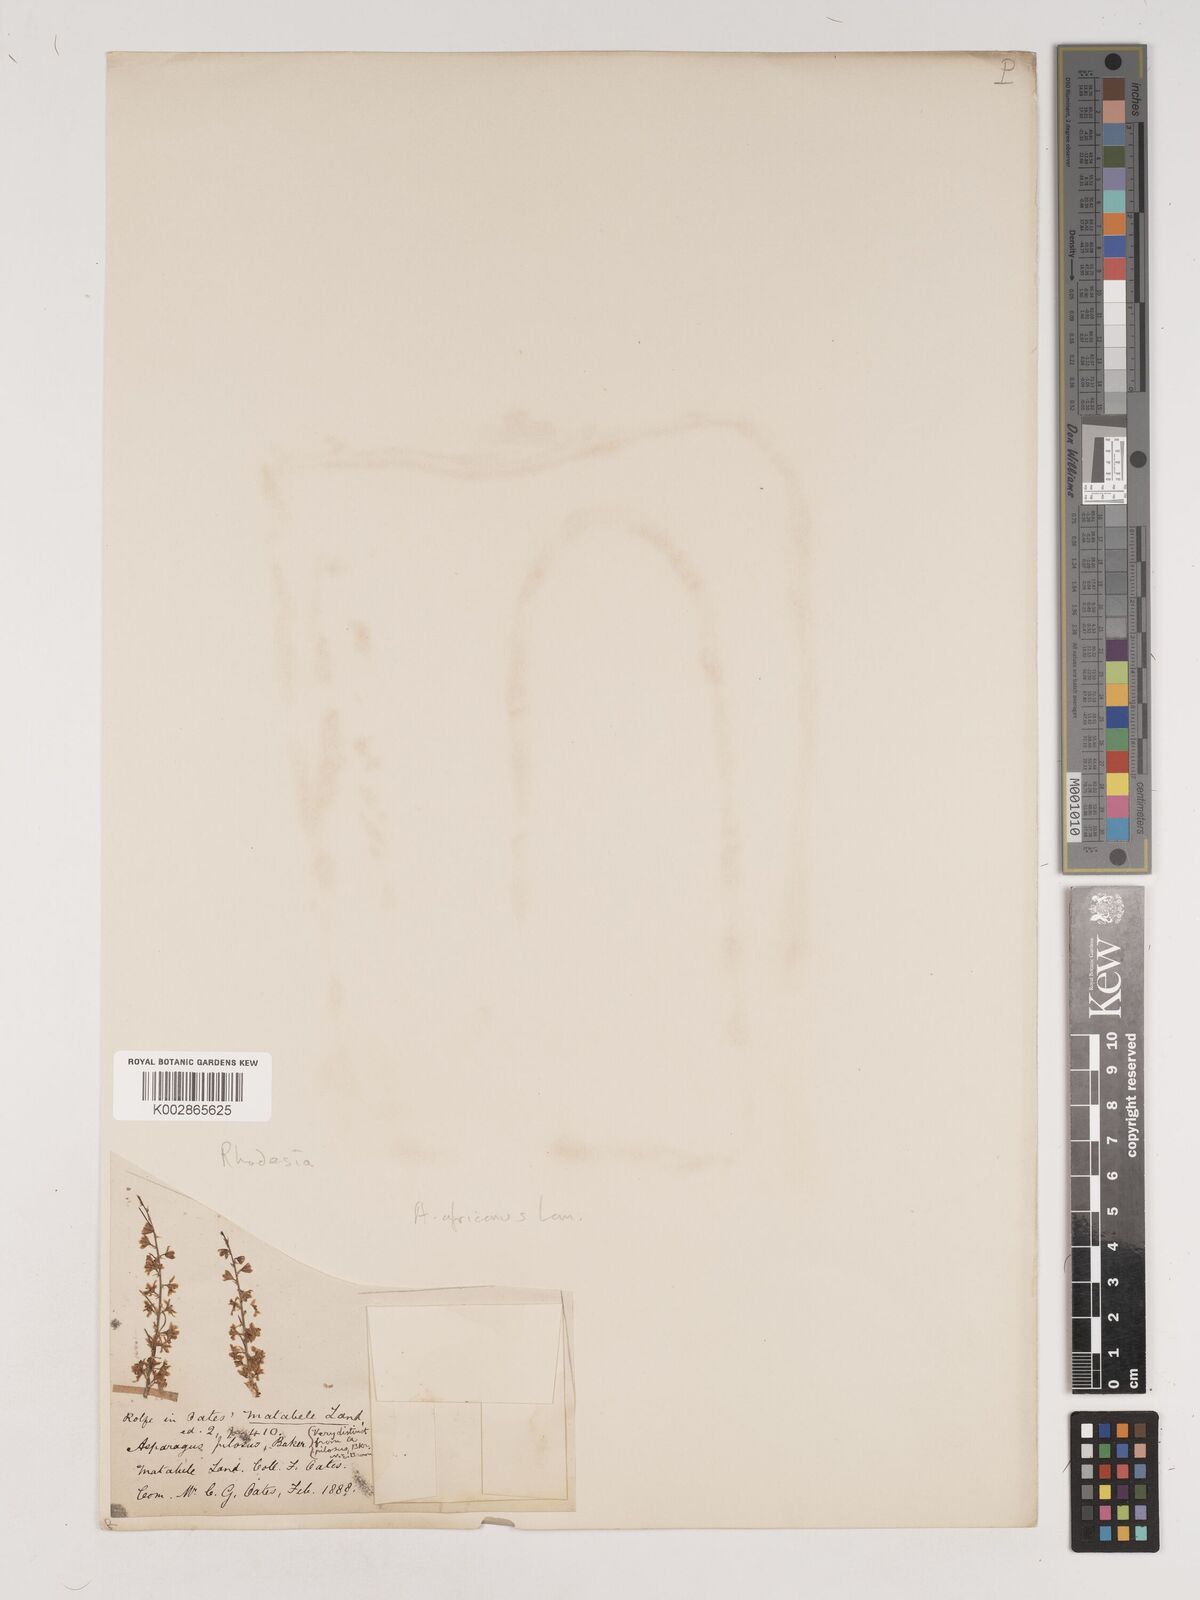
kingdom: Plantae
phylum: Tracheophyta
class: Liliopsida
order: Asparagales
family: Asparagaceae
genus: Asparagus
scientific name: Asparagus africanus
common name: Asparagus-fern
